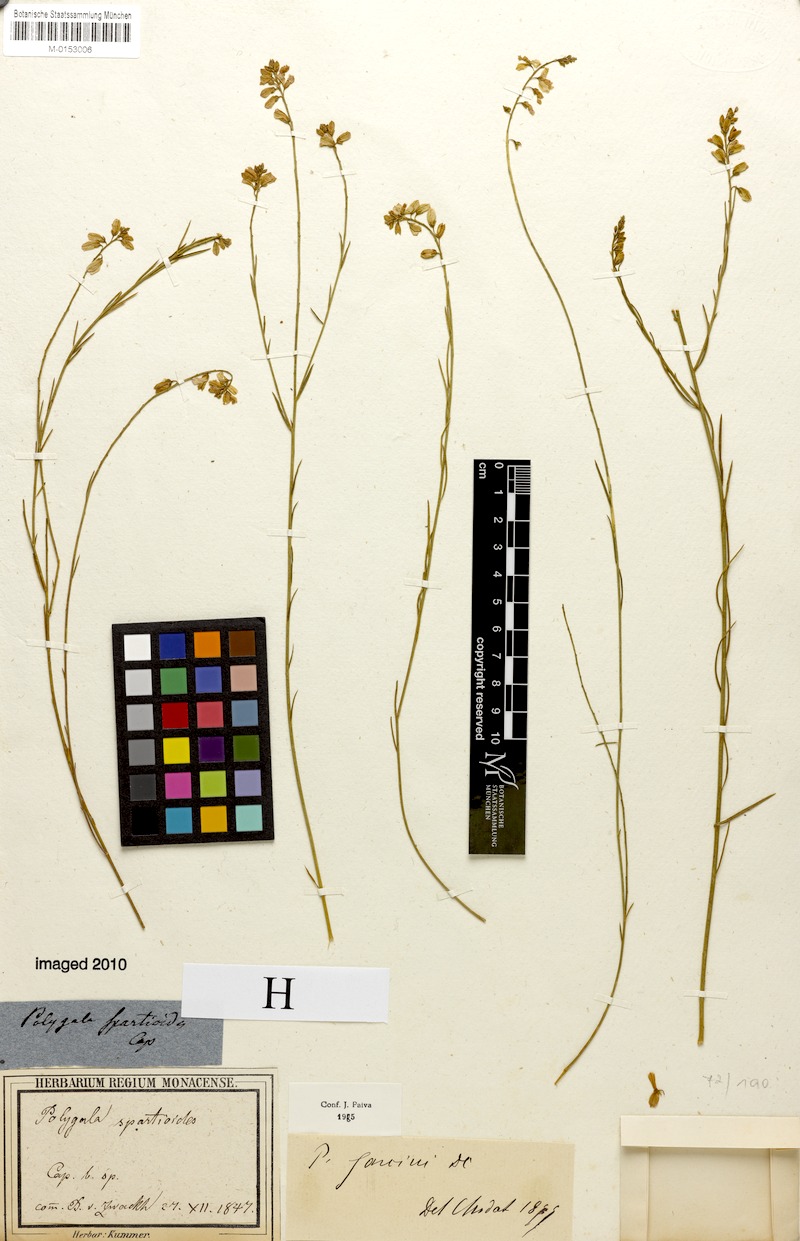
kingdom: Plantae
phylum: Tracheophyta
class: Magnoliopsida
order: Fabales
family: Polygalaceae
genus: Polygala
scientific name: Polygala garcini
